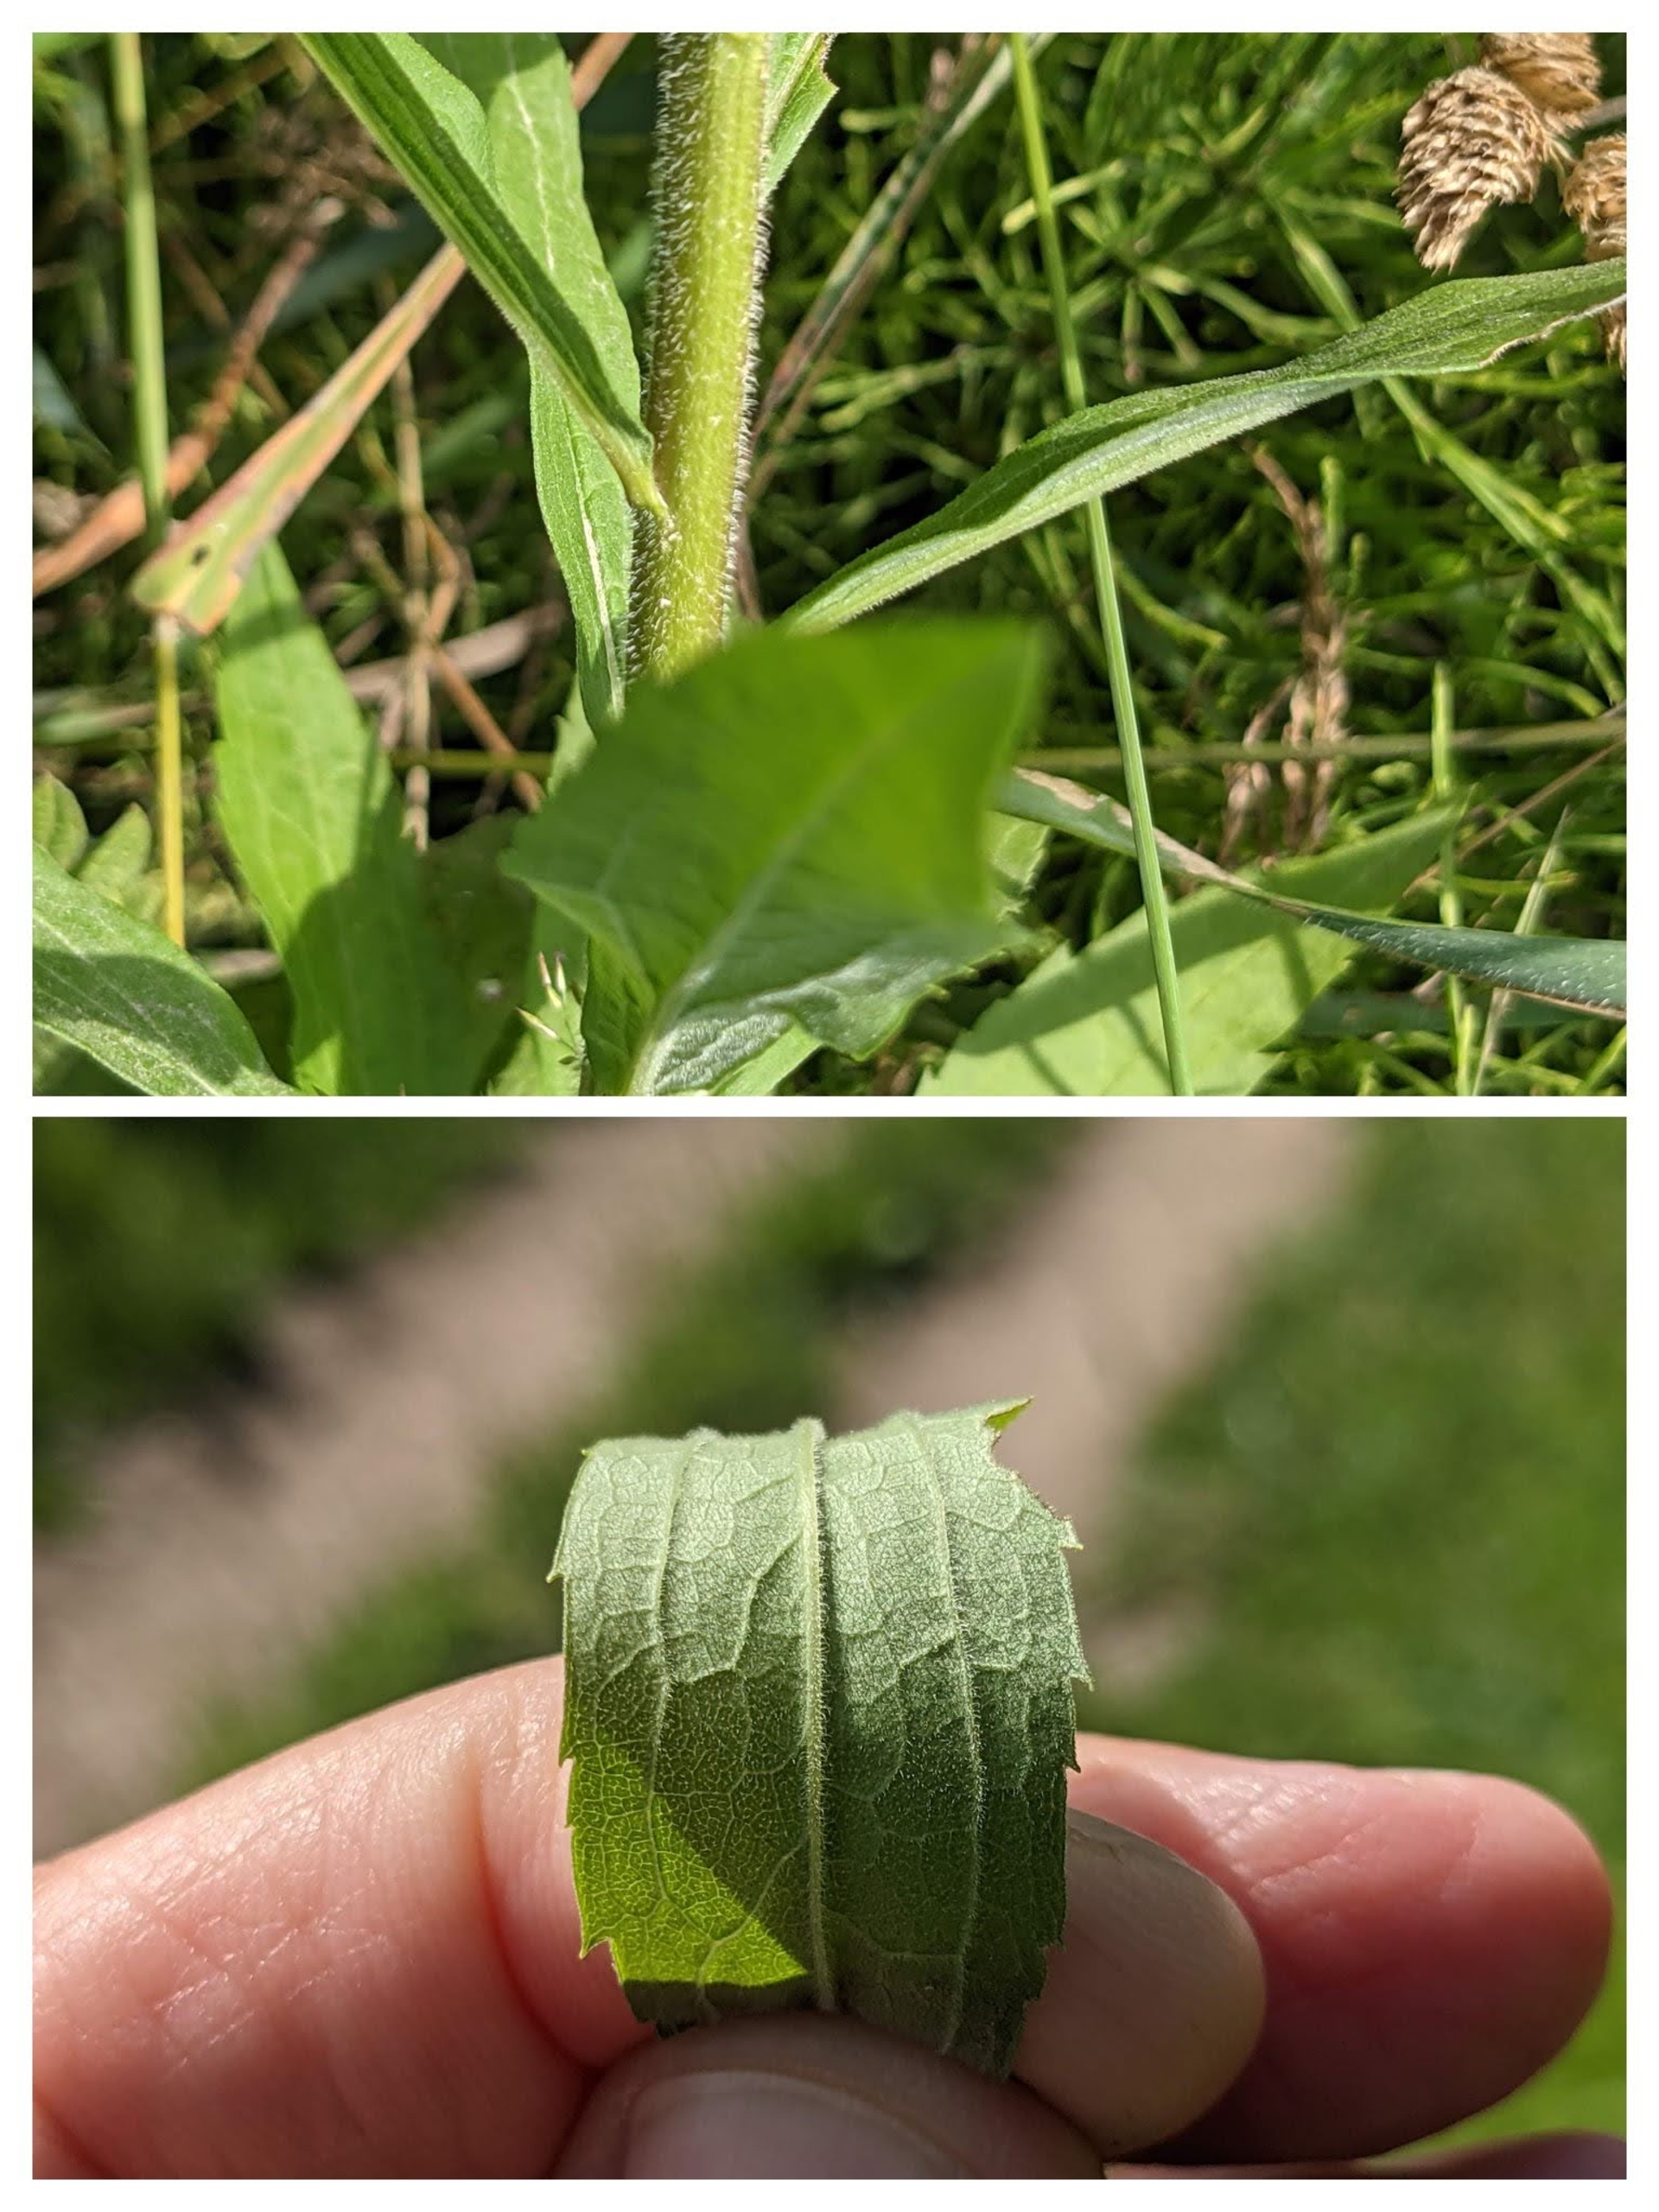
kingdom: Plantae
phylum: Tracheophyta
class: Magnoliopsida
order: Asterales
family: Asteraceae
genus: Solidago
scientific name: Solidago canadensis
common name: Kanadisk gyldenris
